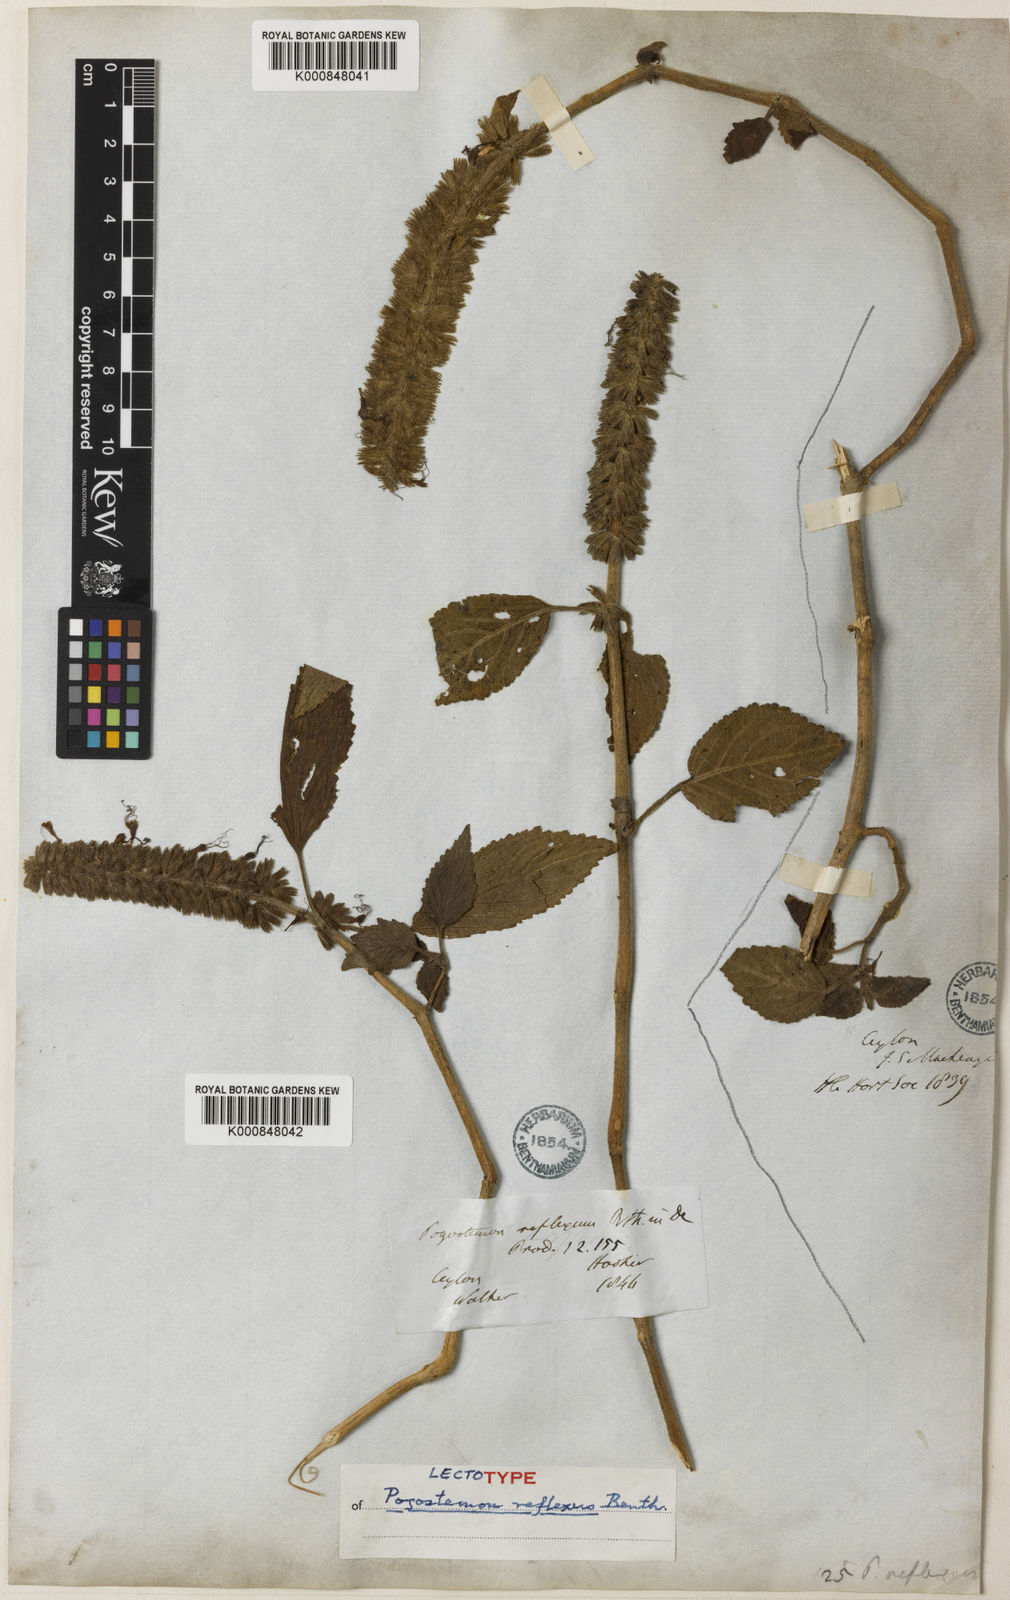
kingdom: Plantae
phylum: Tracheophyta
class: Magnoliopsida
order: Lamiales
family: Lamiaceae
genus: Pogostemon
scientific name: Pogostemon reflexus
